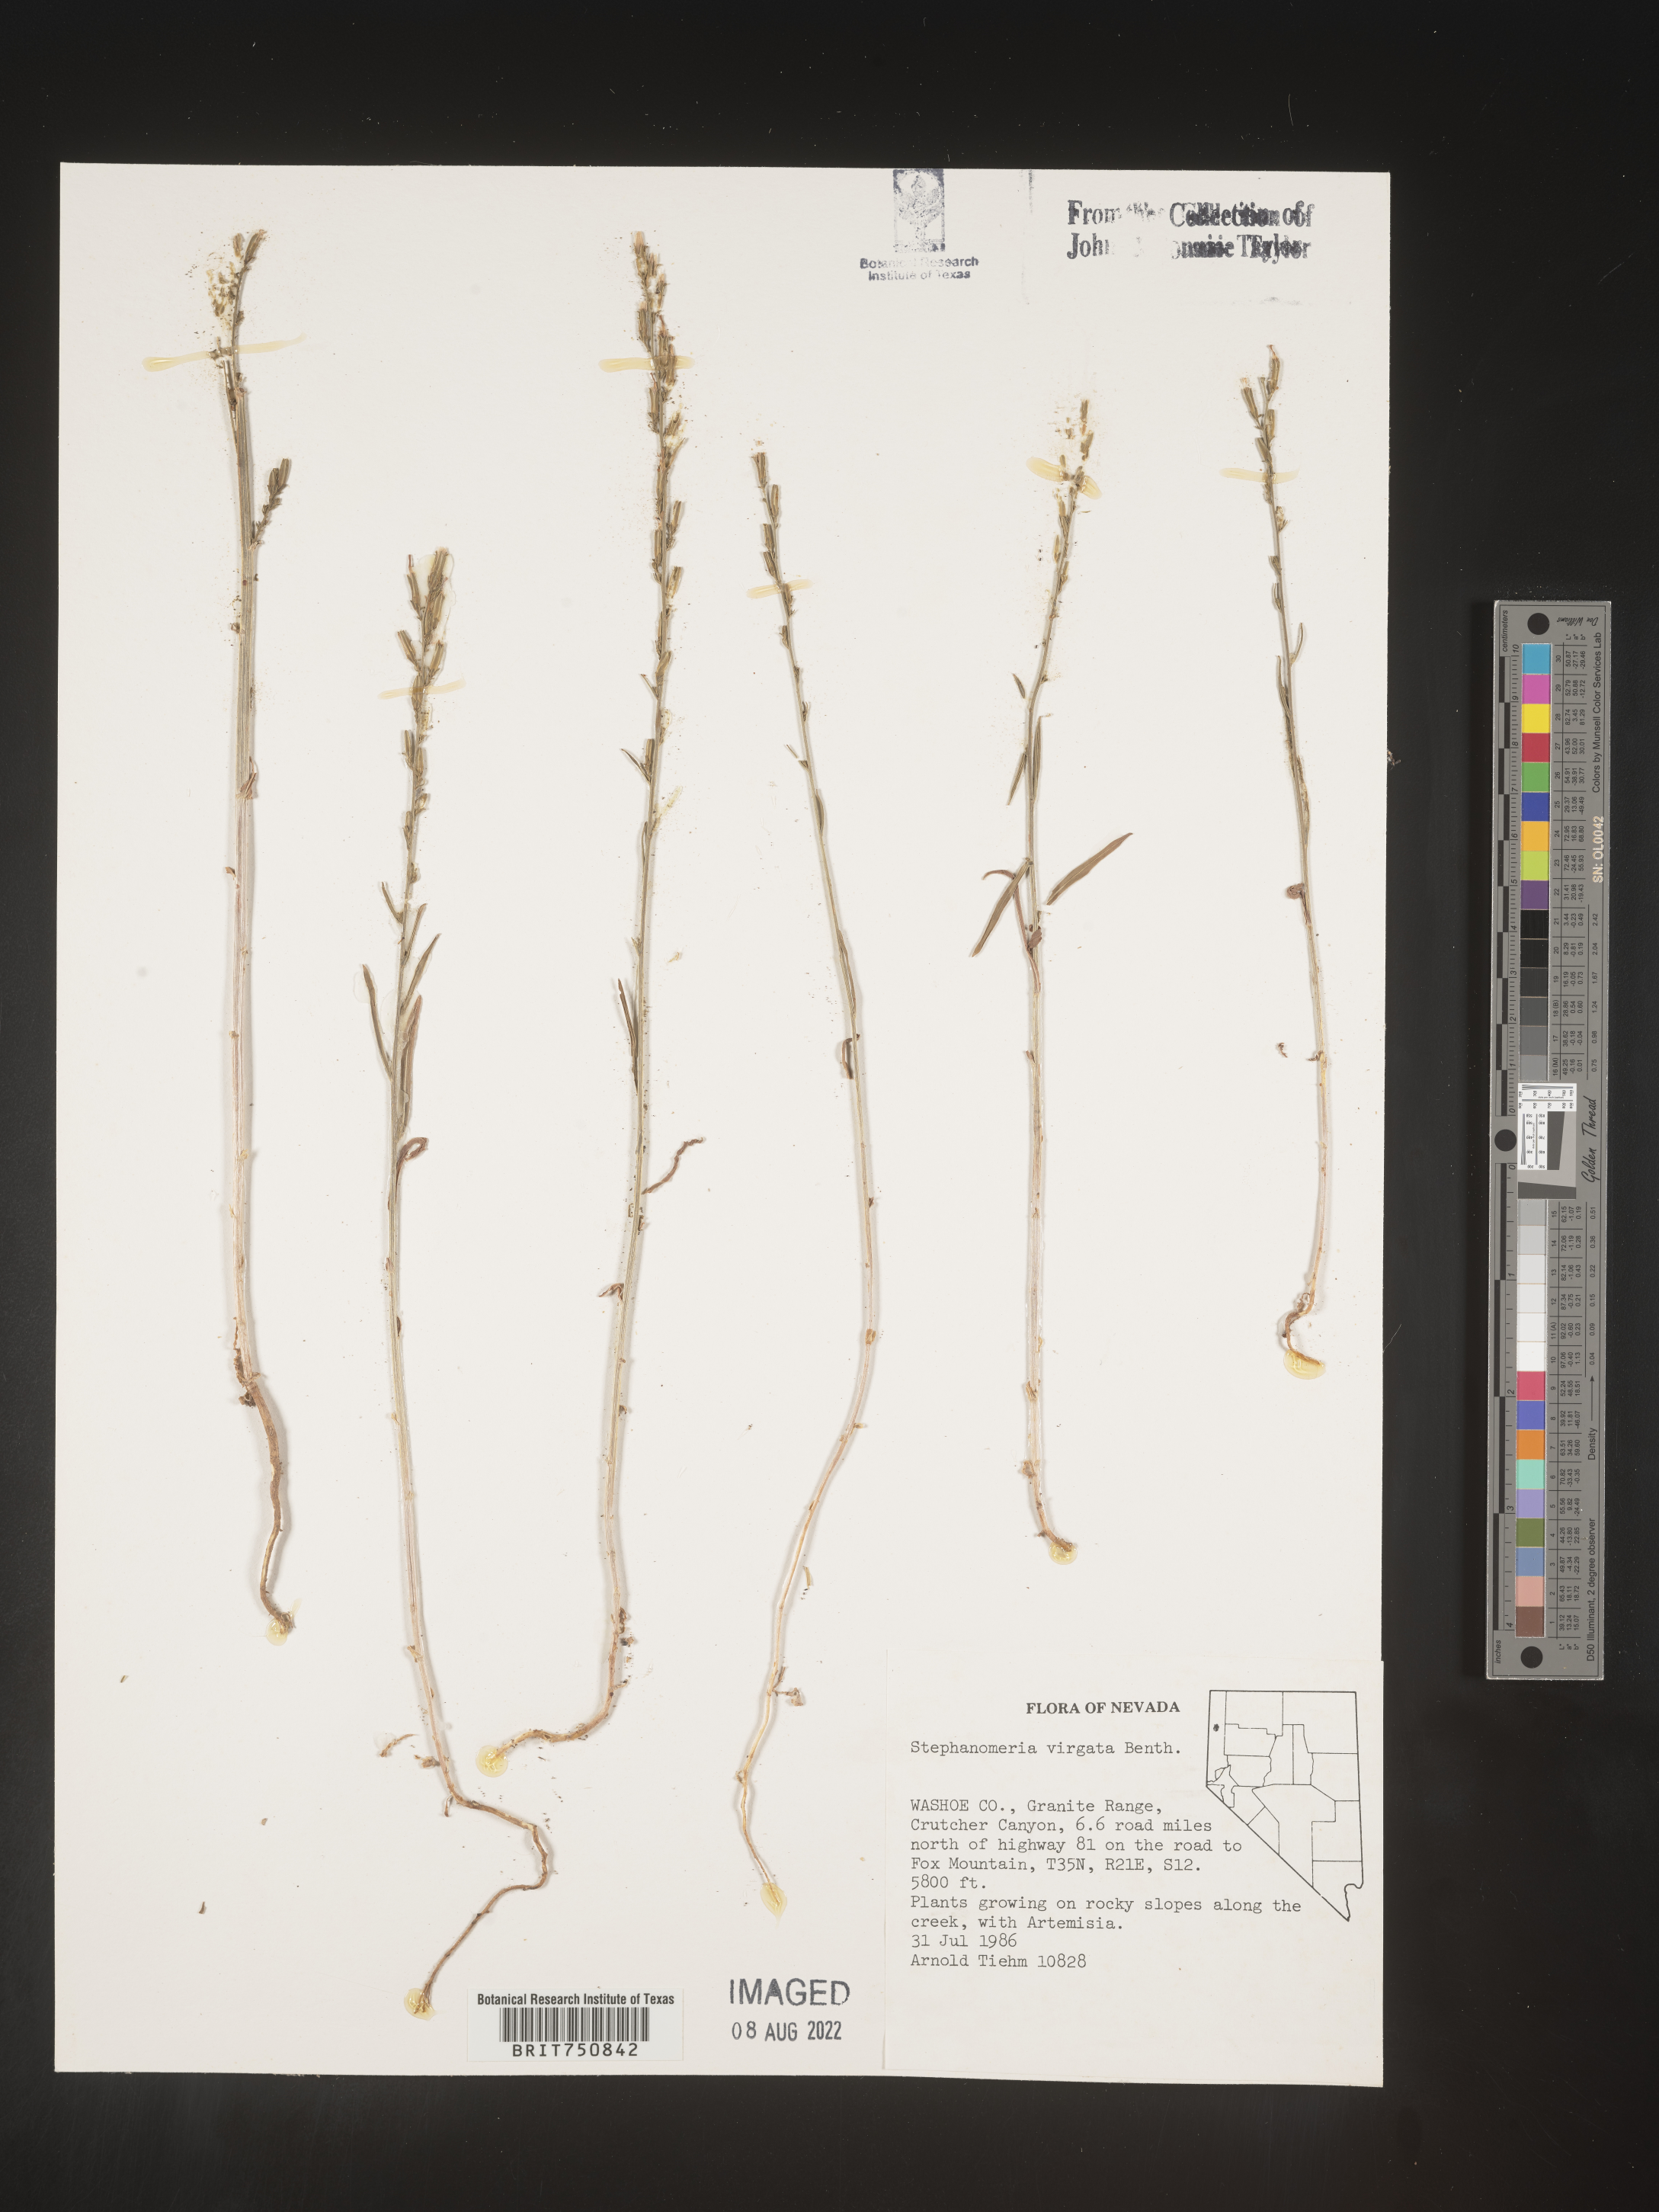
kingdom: Plantae
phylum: Tracheophyta
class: Magnoliopsida
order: Asterales
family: Asteraceae
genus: Stephanomeria
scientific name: Stephanomeria virgata
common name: Virgate wirelettuce
